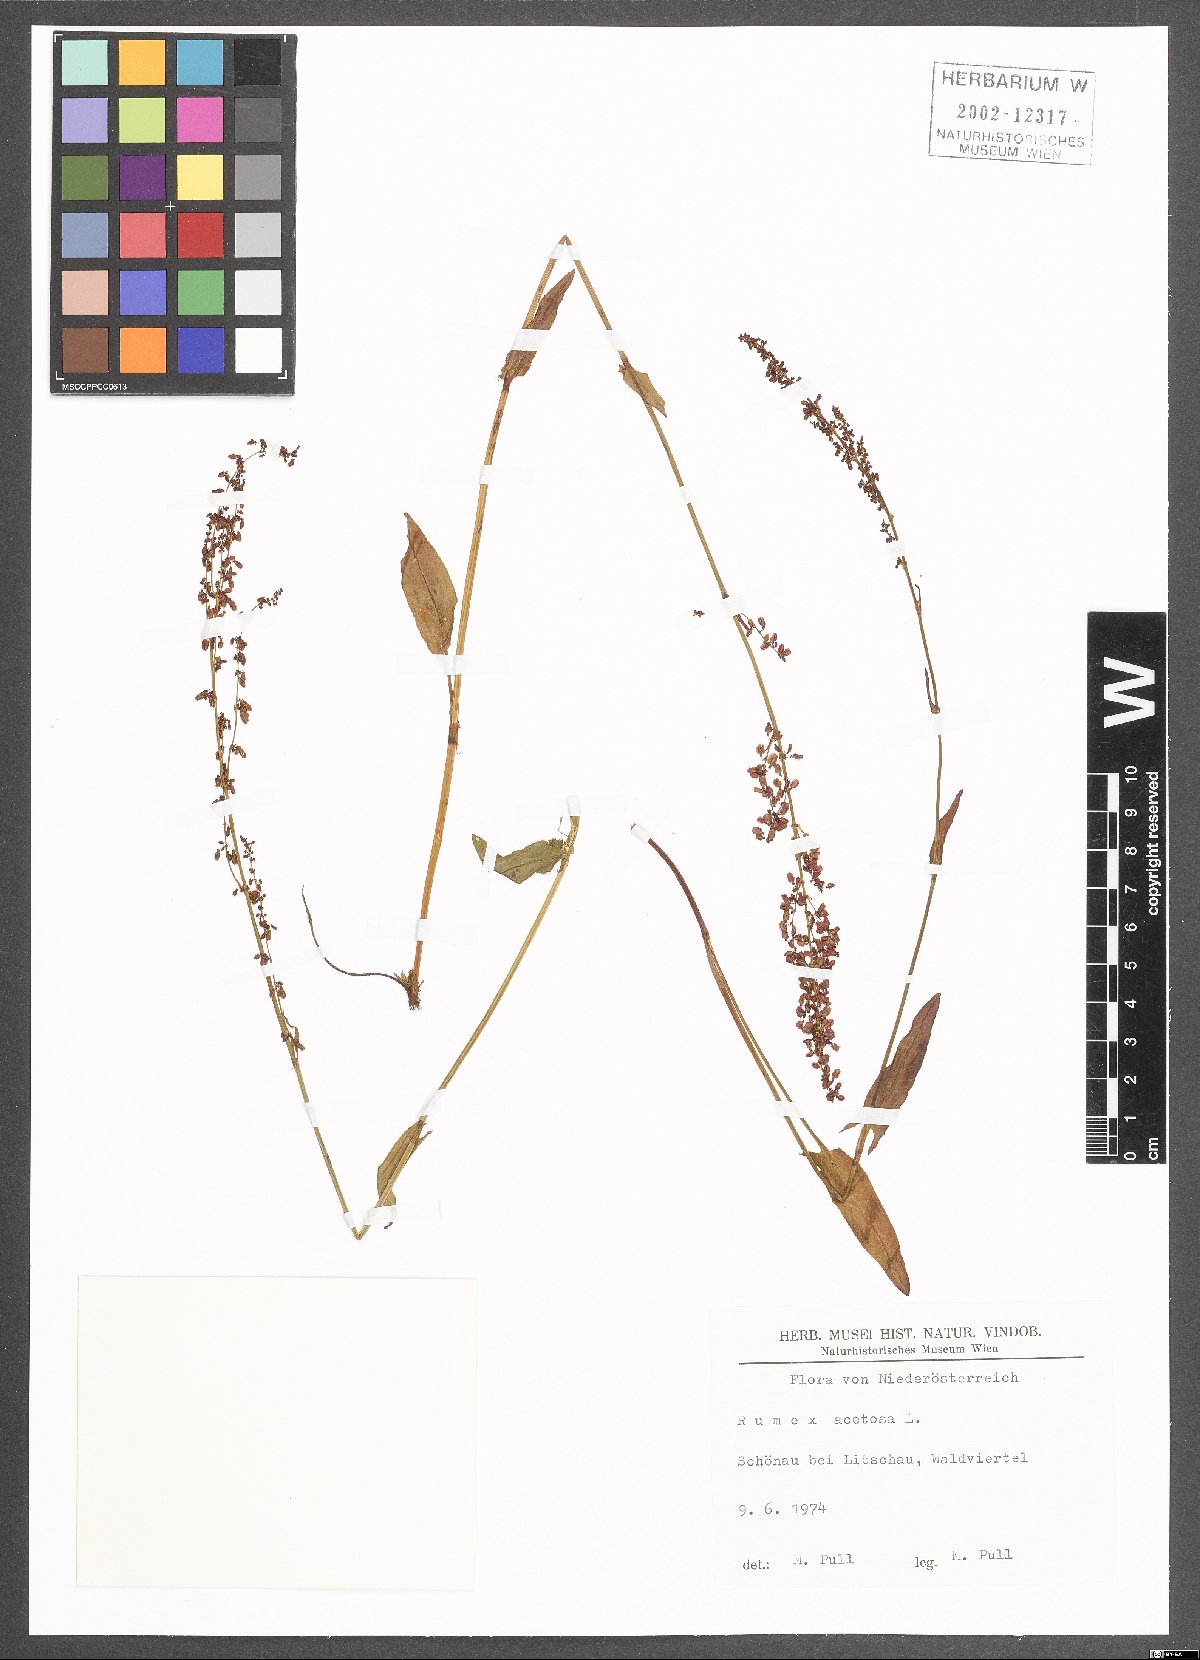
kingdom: Plantae
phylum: Tracheophyta
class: Magnoliopsida
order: Caryophyllales
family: Polygonaceae
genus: Rumex
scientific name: Rumex acetosa
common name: Garden sorrel
